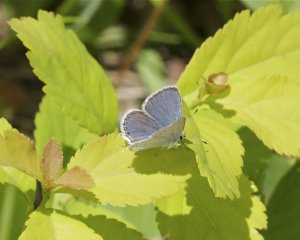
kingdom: Animalia
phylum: Arthropoda
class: Insecta
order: Lepidoptera
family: Lycaenidae
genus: Elkalyce
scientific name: Elkalyce amyntula
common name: Western Tailed-Blue
